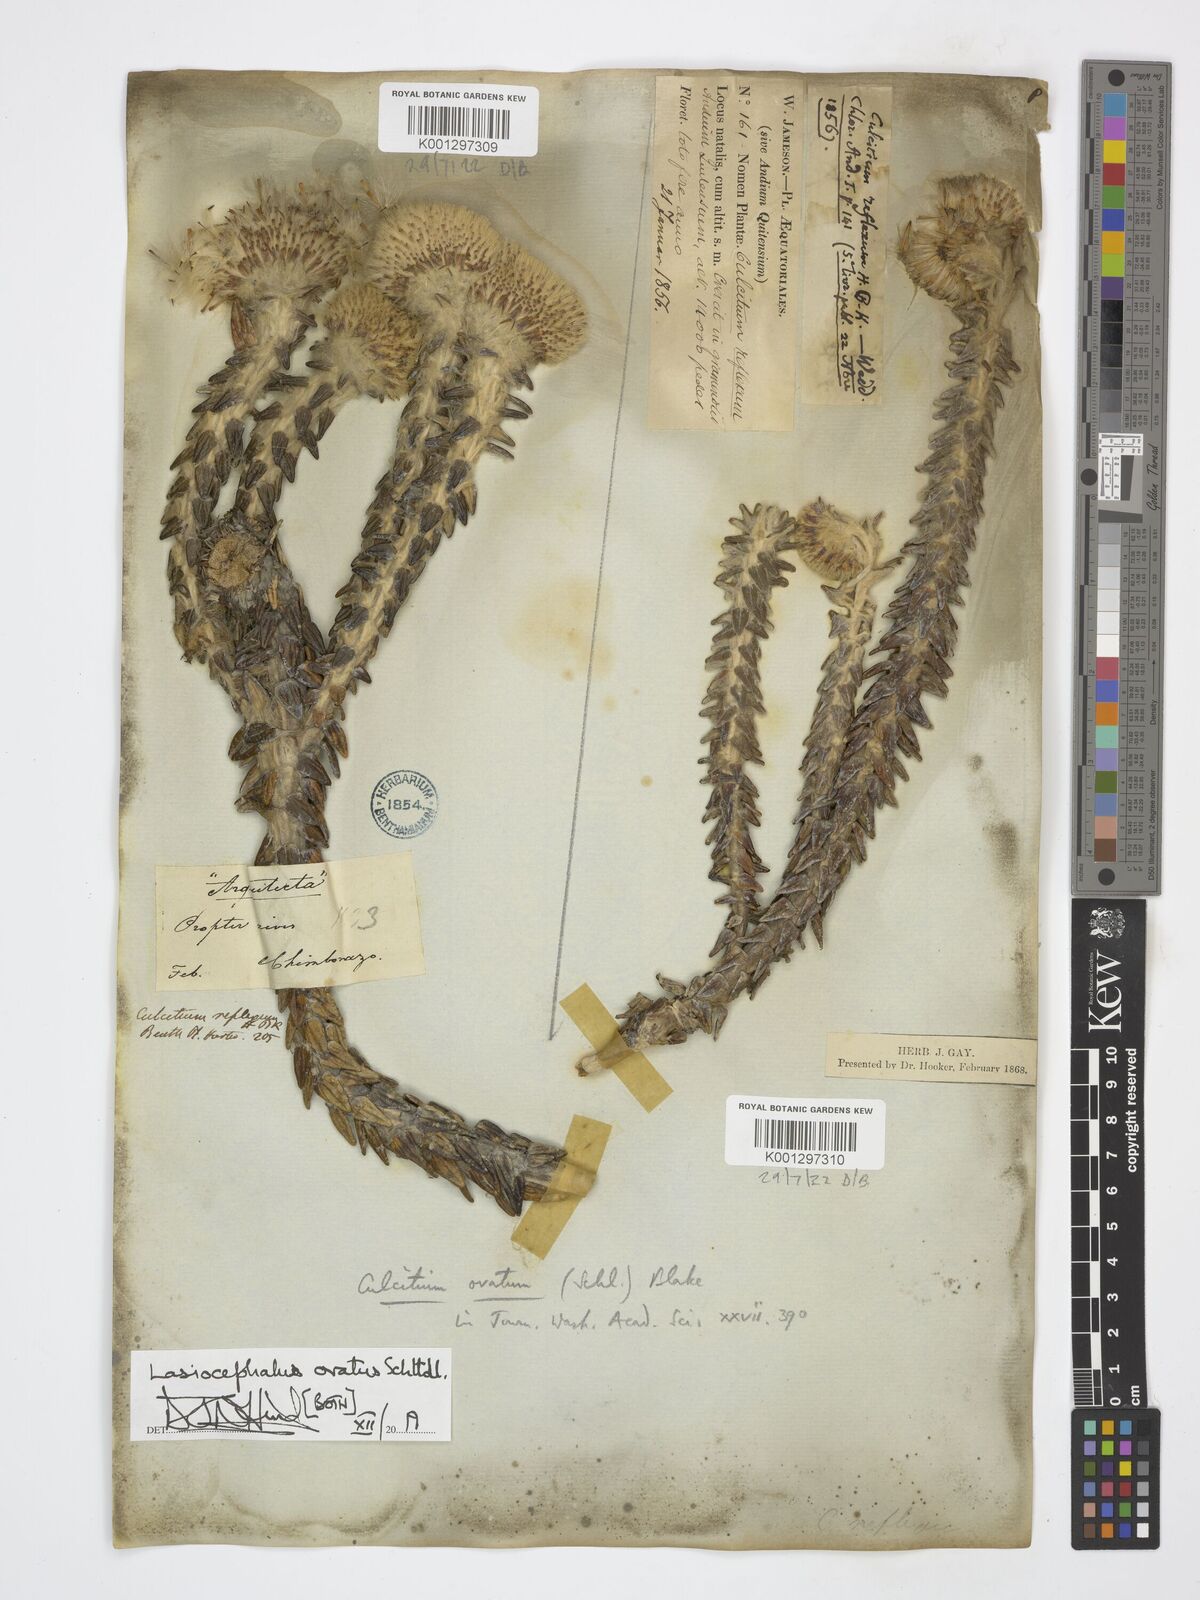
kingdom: Plantae
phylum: Tracheophyta
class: Magnoliopsida
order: Asterales
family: Asteraceae
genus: Lasiocephalus
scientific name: Lasiocephalus ovatus
